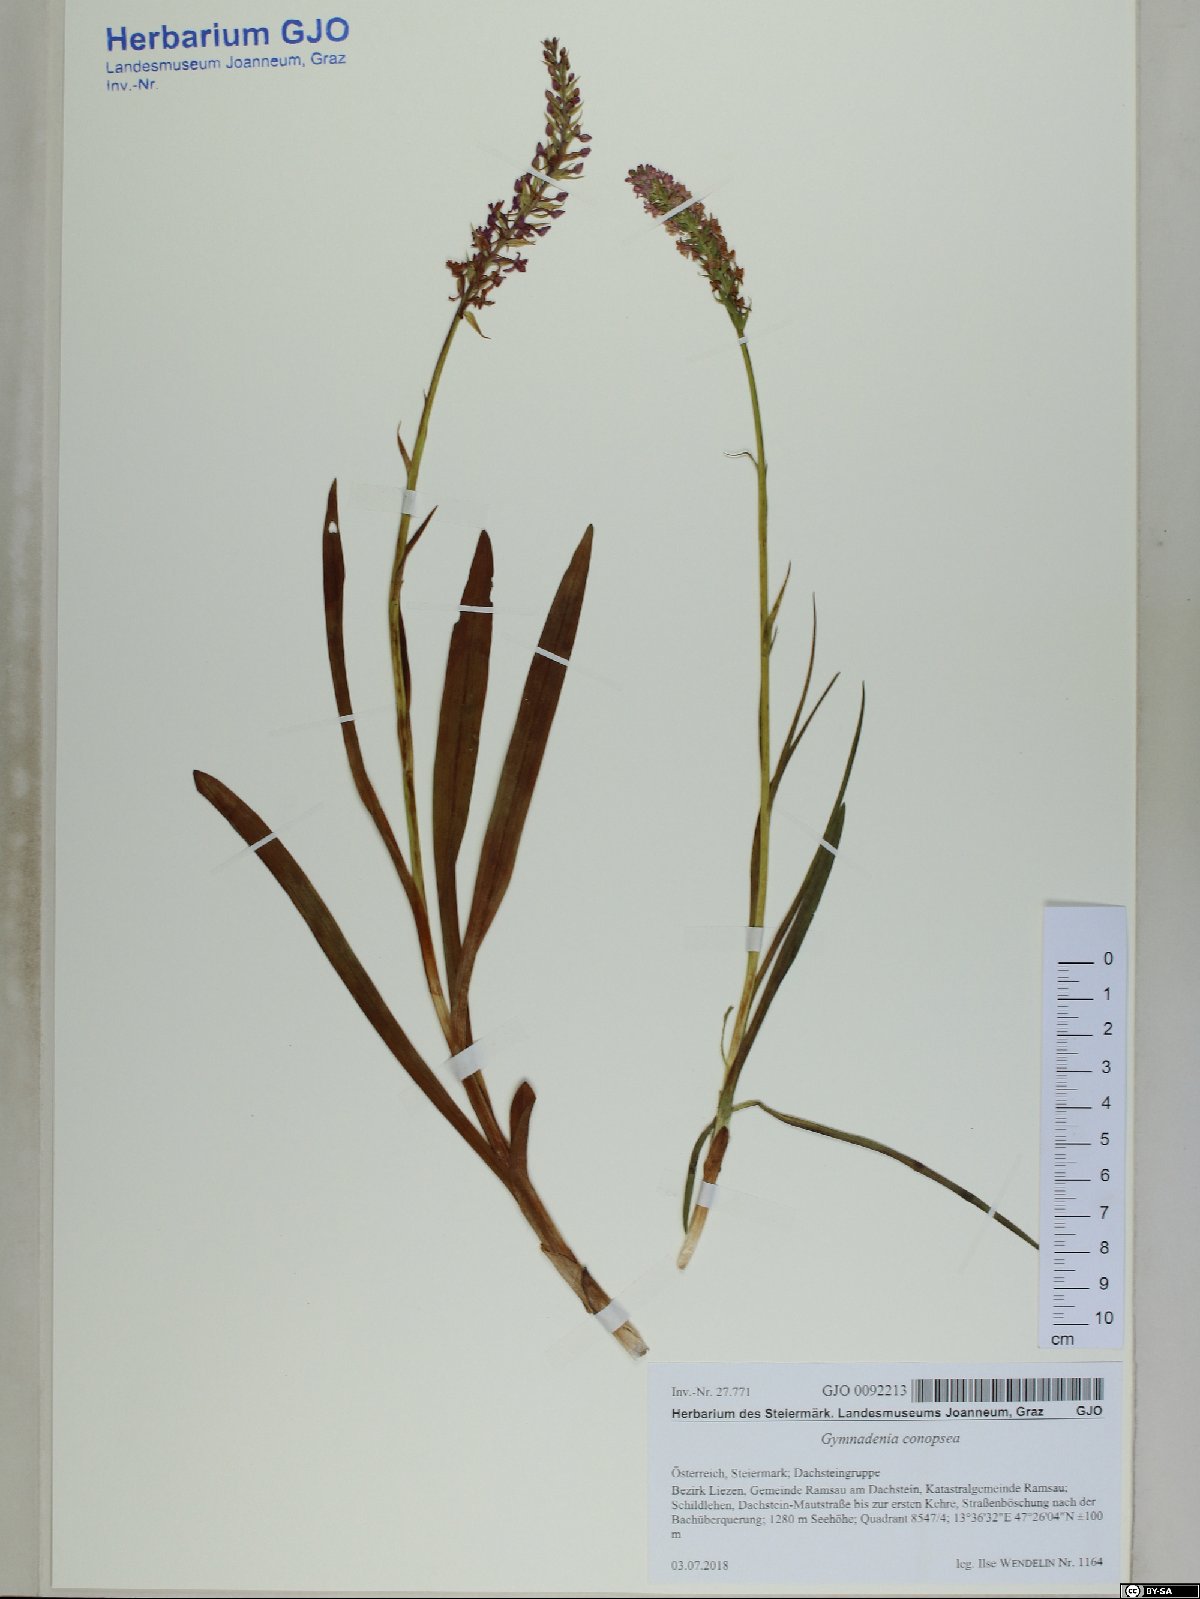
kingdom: Plantae
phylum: Tracheophyta
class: Liliopsida
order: Asparagales
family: Orchidaceae
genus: Gymnadenia
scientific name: Gymnadenia conopsea
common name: Fragrant orchid
